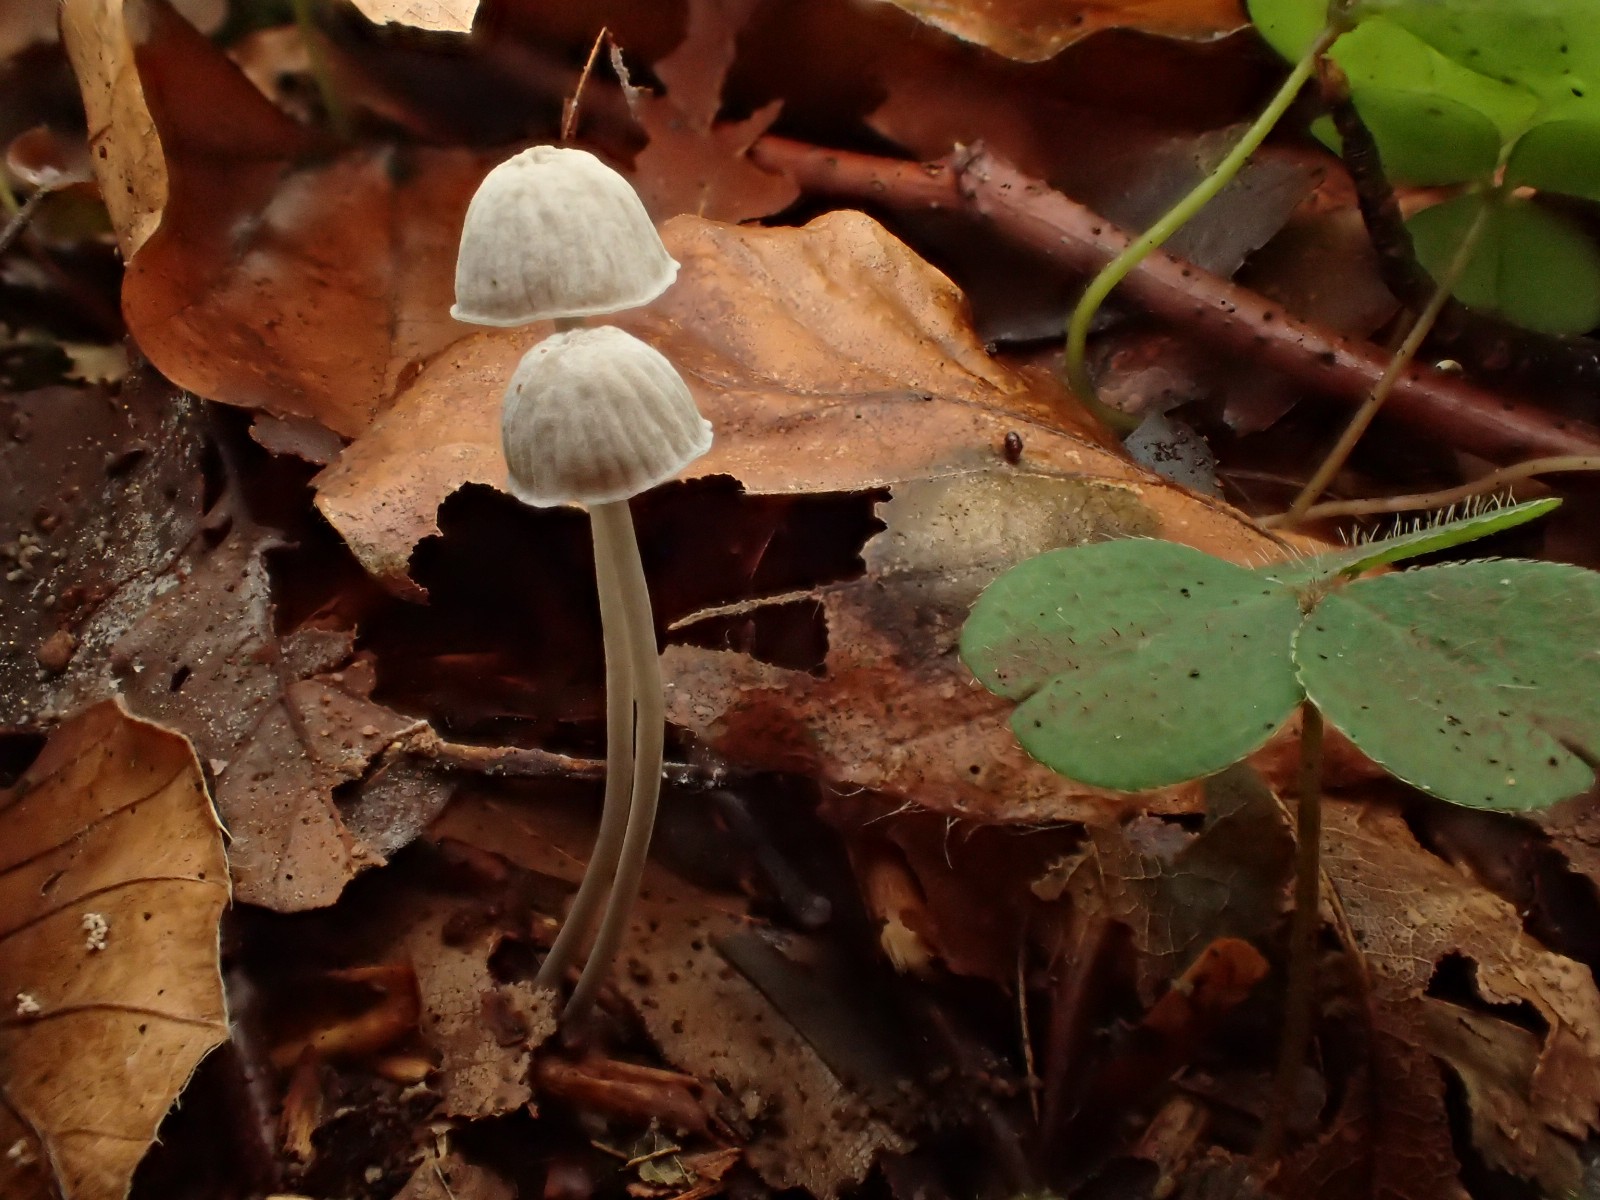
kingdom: Fungi
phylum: Basidiomycota
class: Agaricomycetes
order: Agaricales
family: Mycenaceae
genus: Mycena
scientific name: Mycena cinerella
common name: mel-huesvamp
